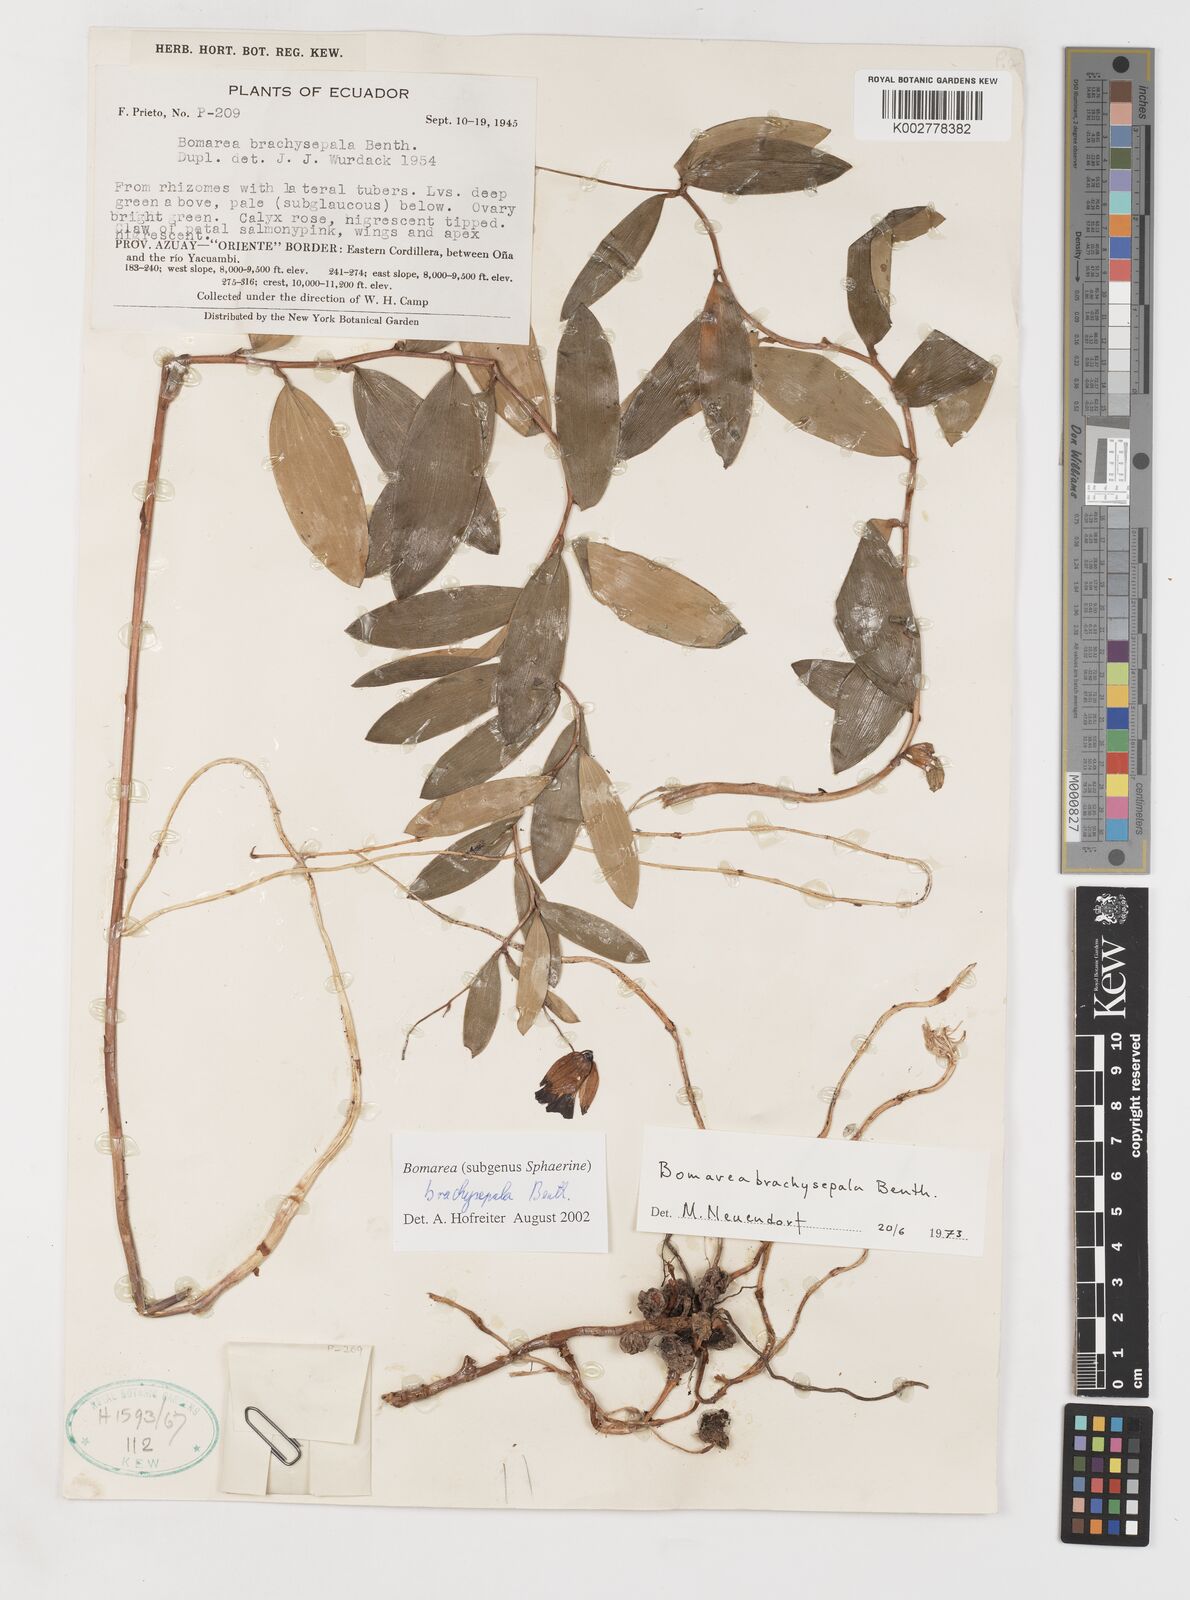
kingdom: Plantae
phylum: Tracheophyta
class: Liliopsida
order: Liliales
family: Alstroemeriaceae
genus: Bomarea
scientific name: Bomarea brachysepala
